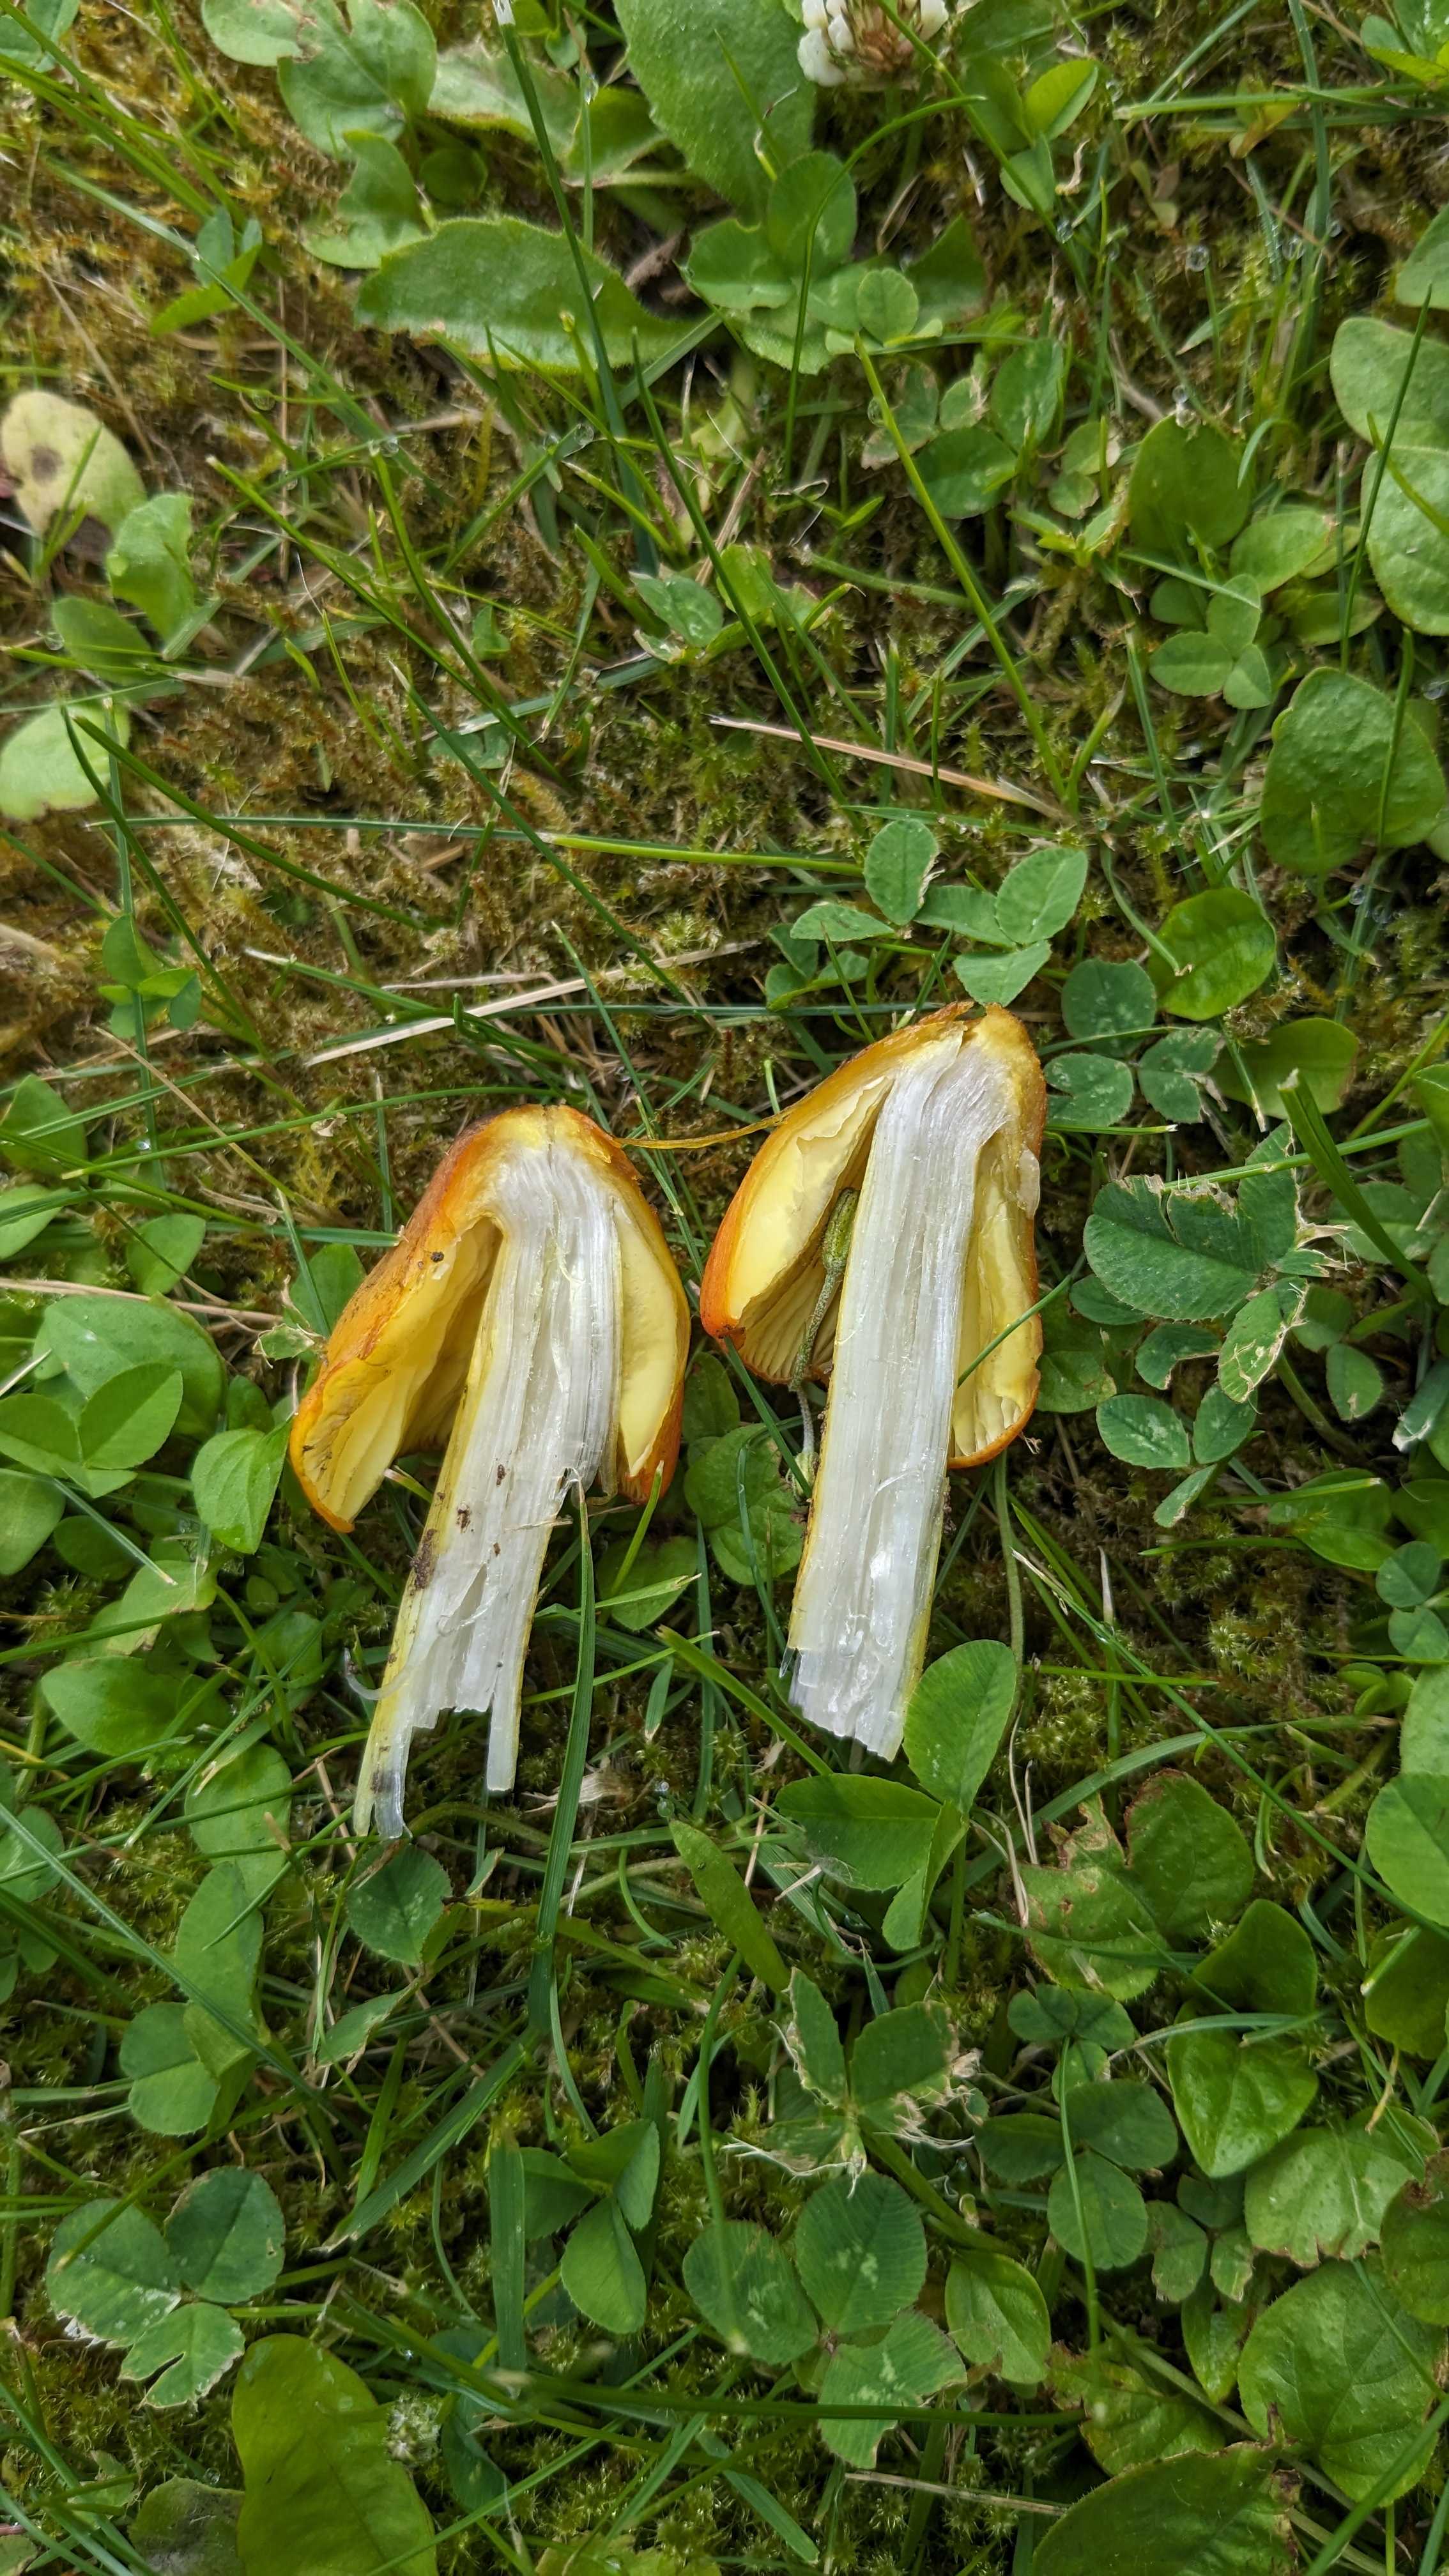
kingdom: Fungi
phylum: Basidiomycota
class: Agaricomycetes
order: Agaricales
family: Hygrophoraceae
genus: Hygrocybe
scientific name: Hygrocybe conica
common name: kegle-vokshat
